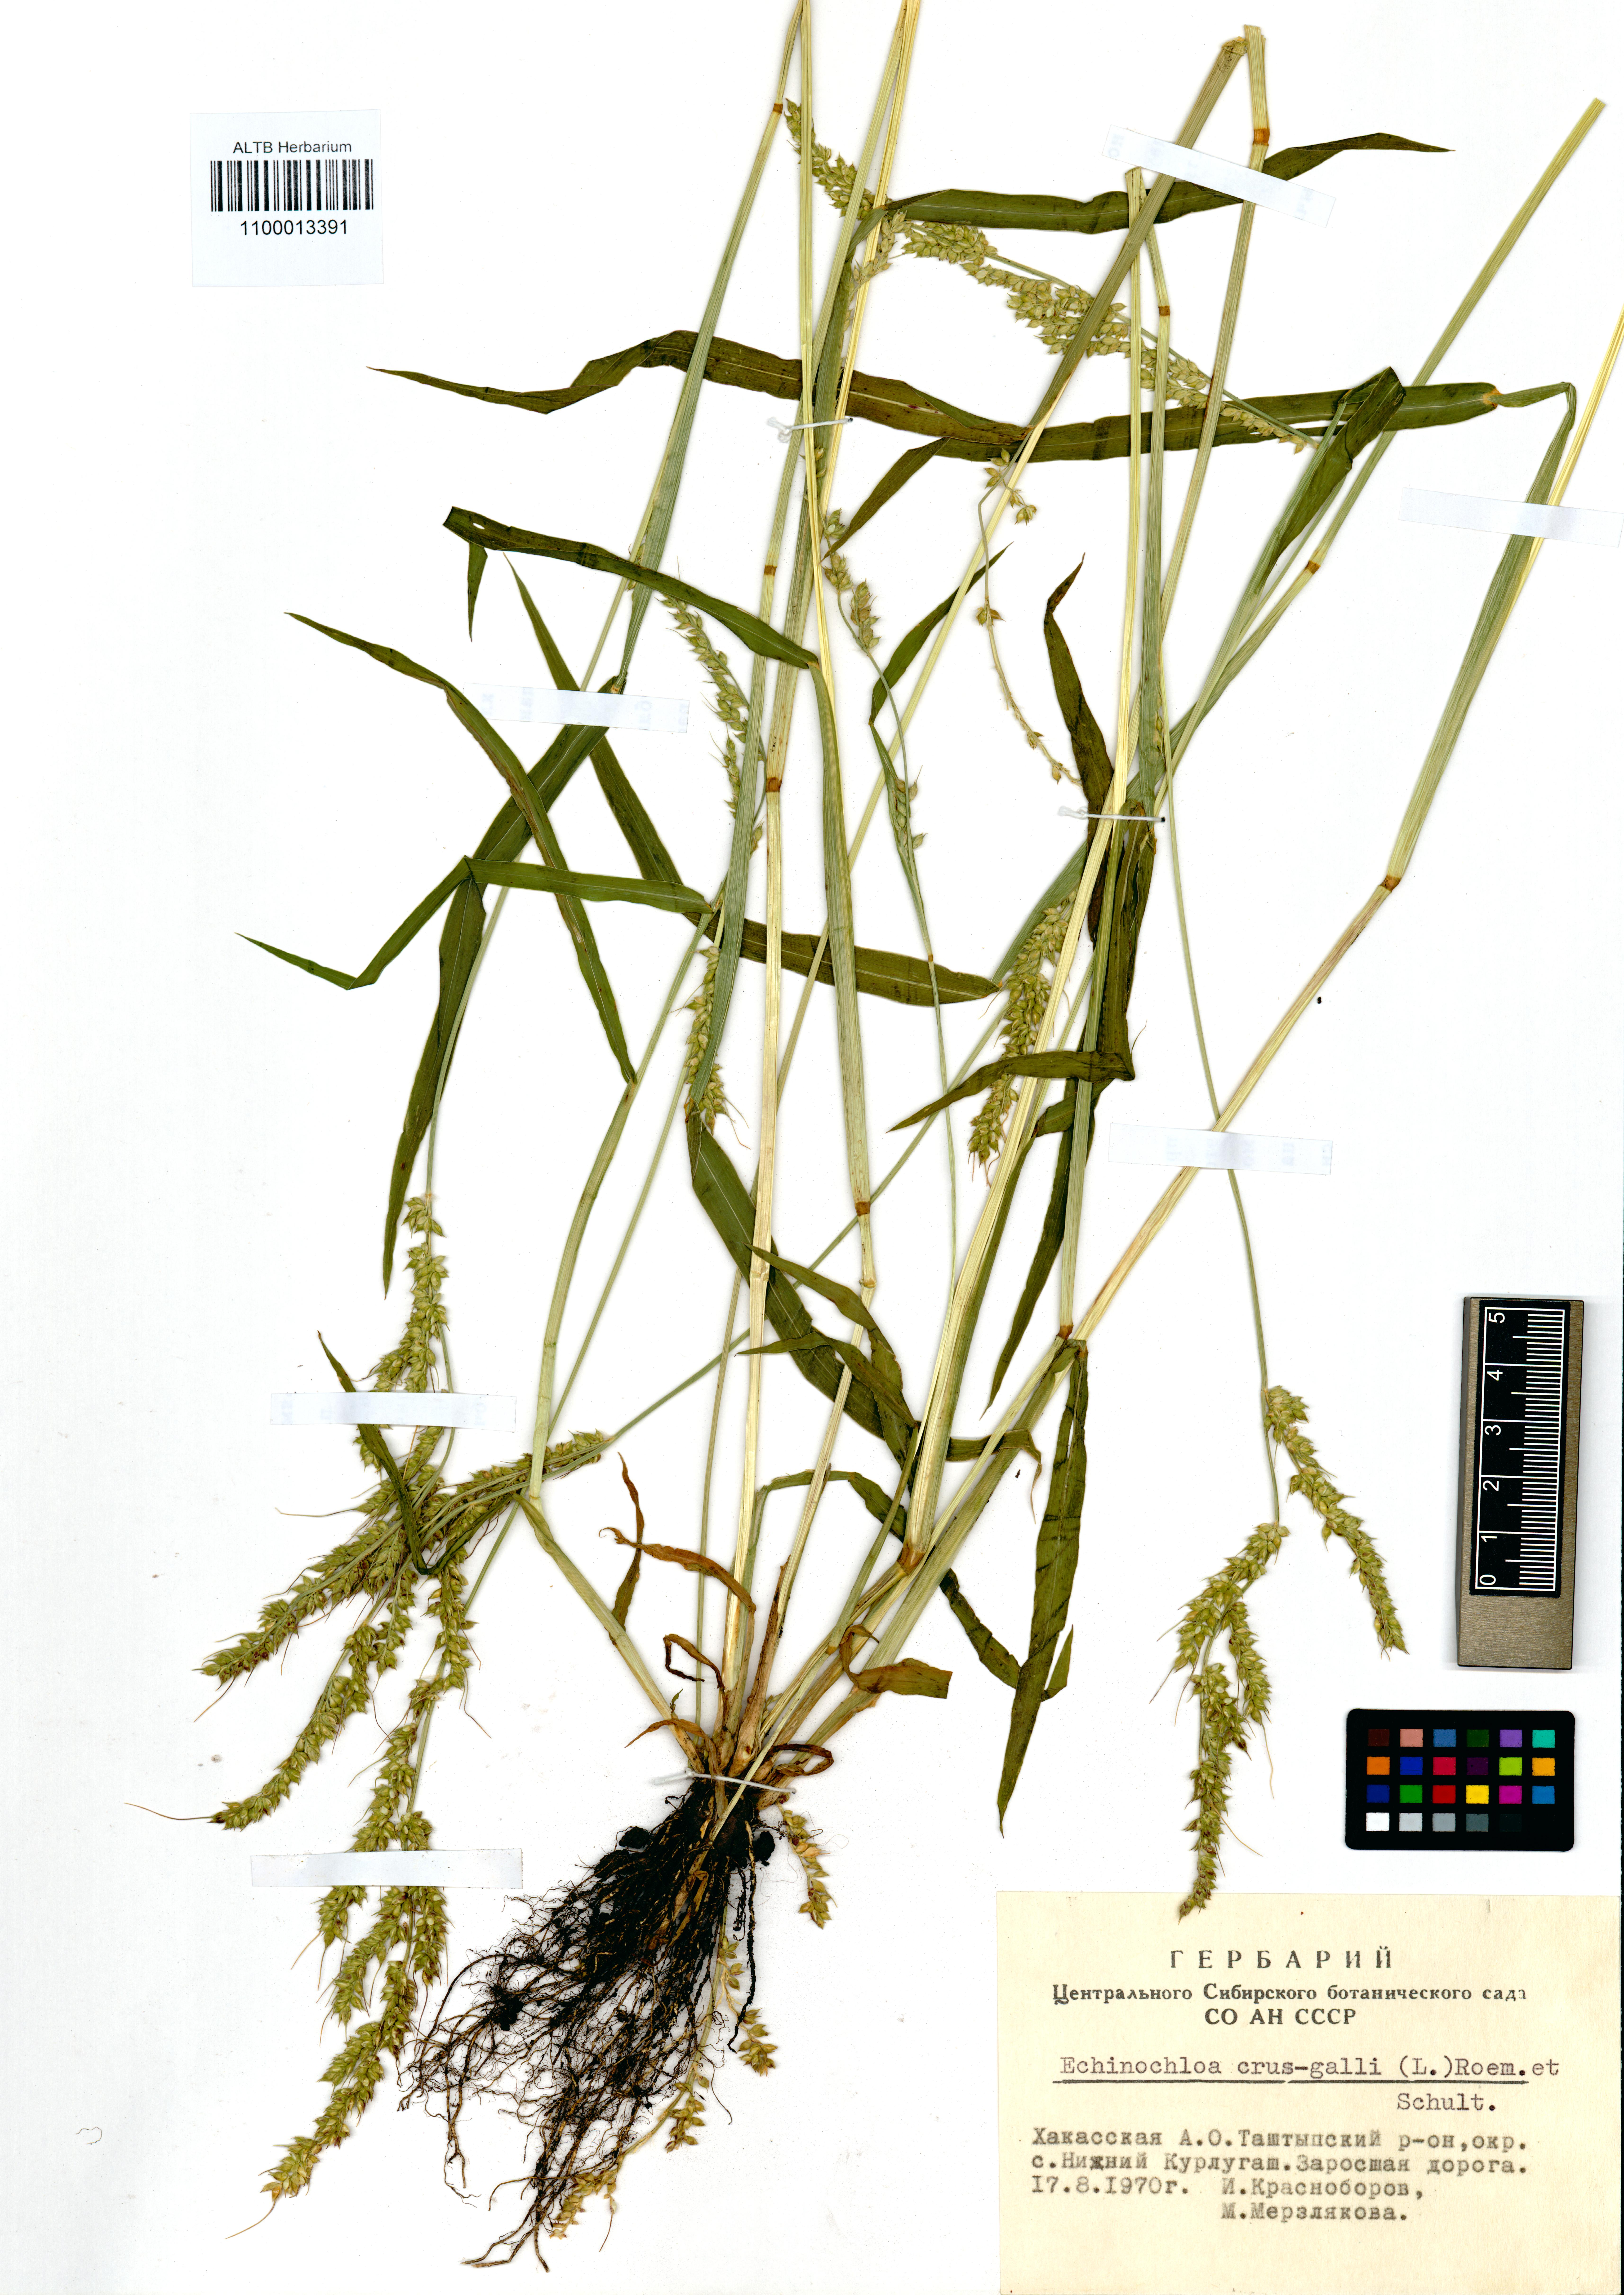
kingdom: Plantae
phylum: Tracheophyta
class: Liliopsida
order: Poales
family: Poaceae
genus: Echinochloa
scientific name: Echinochloa crus-galli
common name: Cockspur
